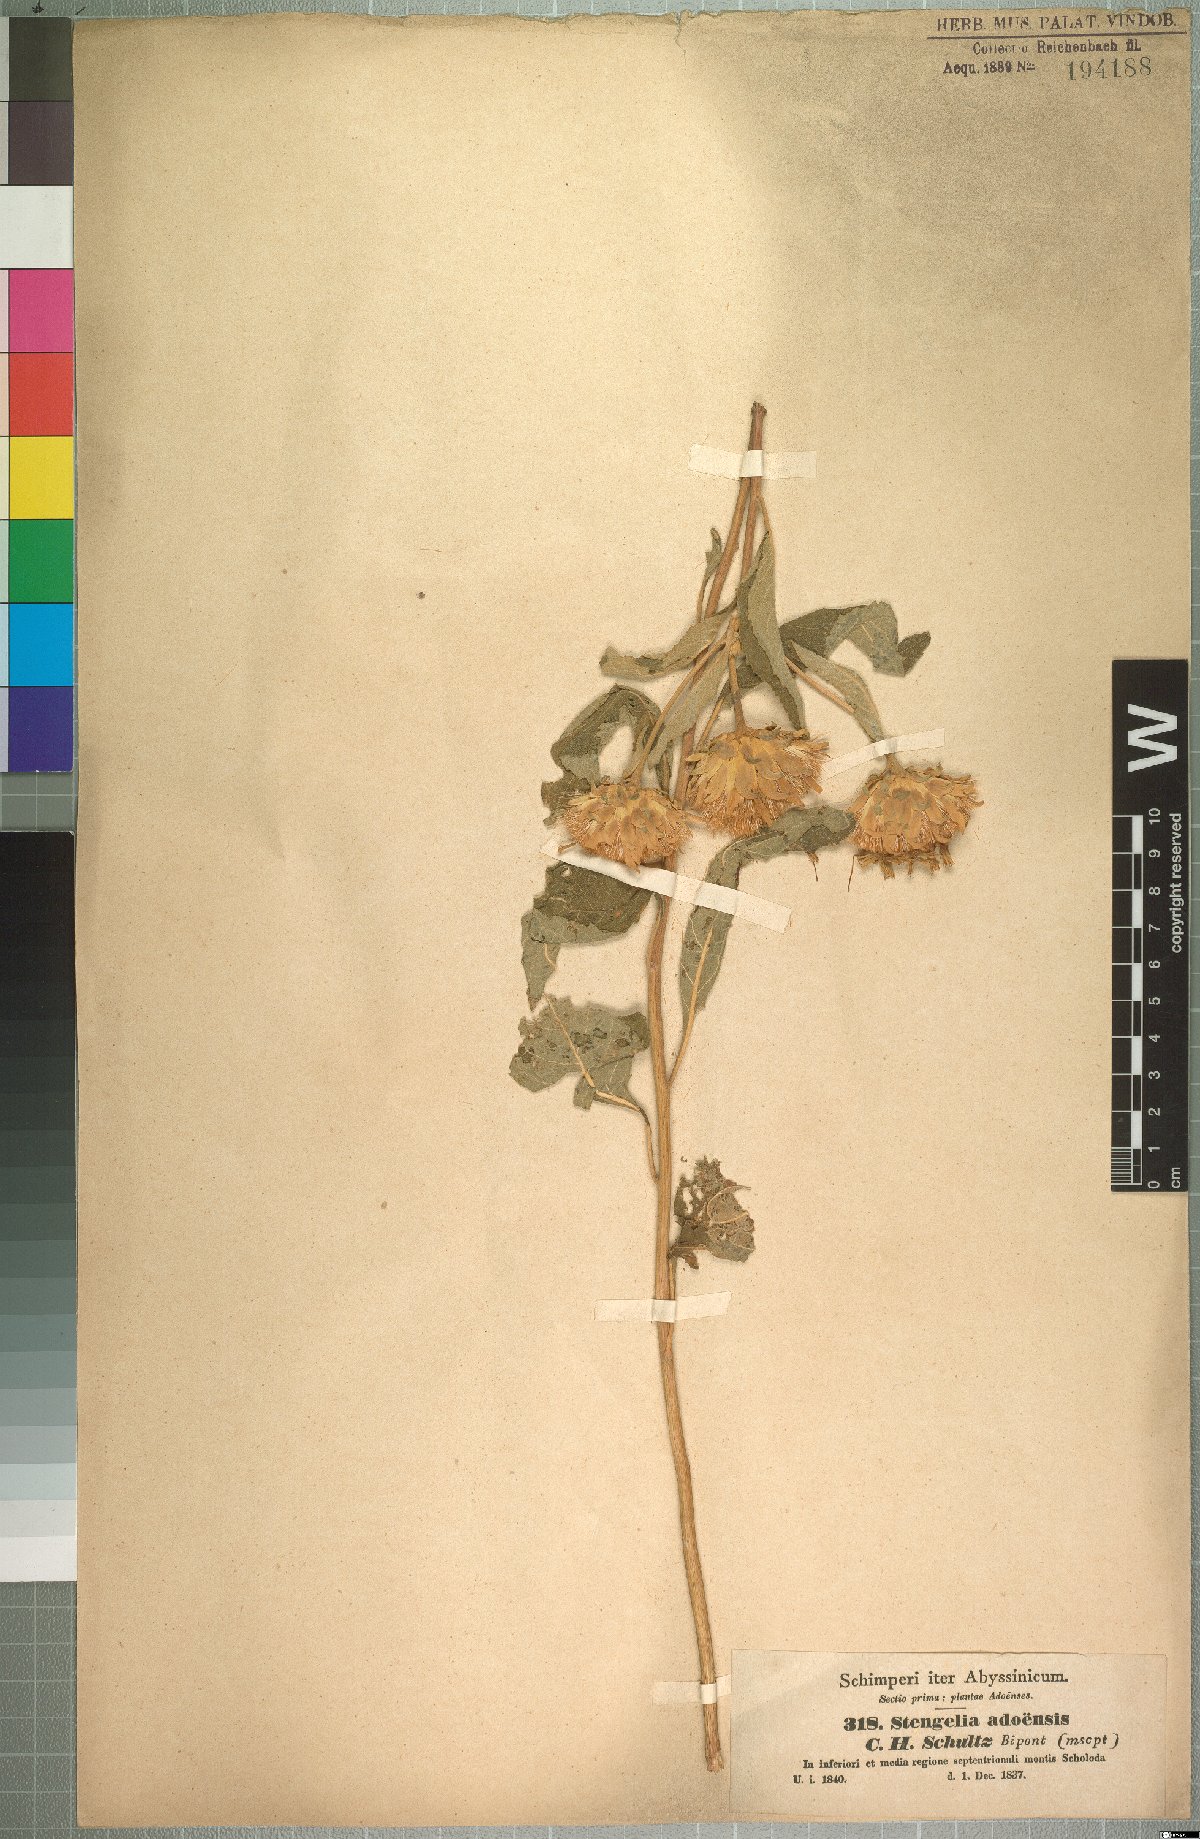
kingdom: Plantae
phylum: Tracheophyta
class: Magnoliopsida
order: Asterales
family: Asteraceae
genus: Baccharoides
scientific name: Baccharoides adoensis
